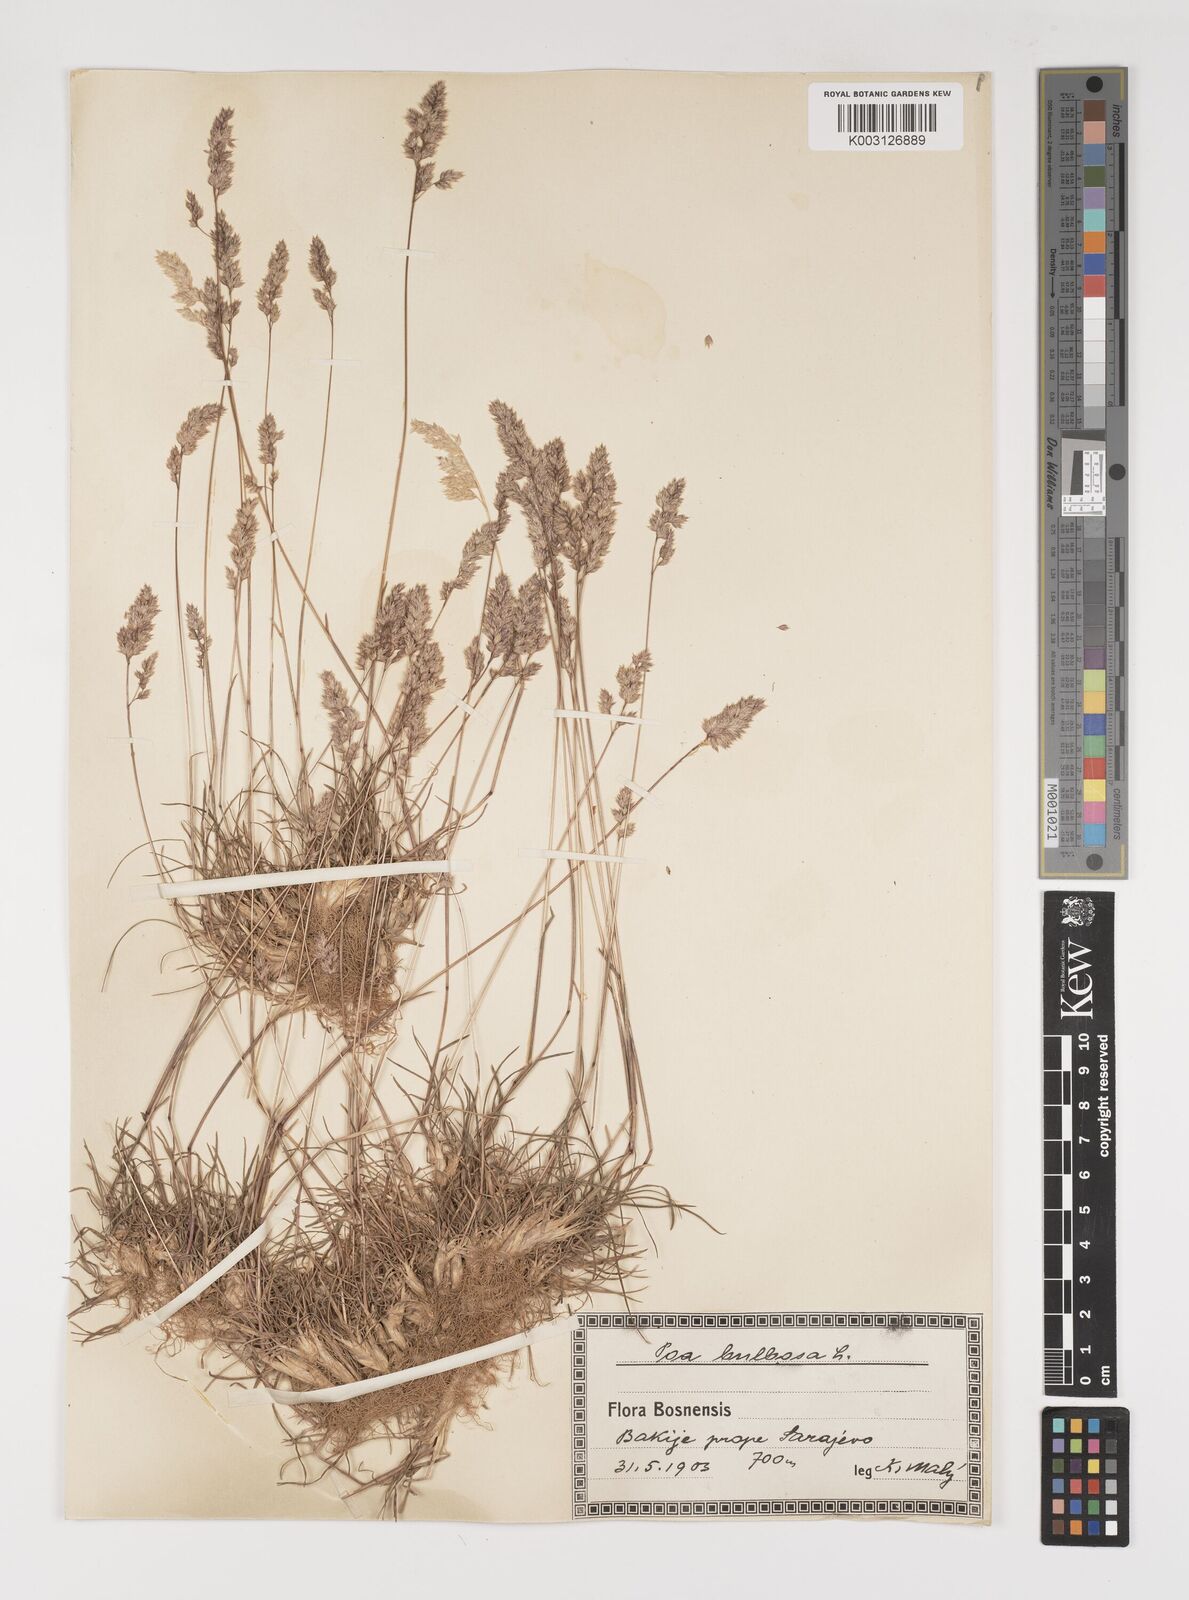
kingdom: Plantae
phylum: Tracheophyta
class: Liliopsida
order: Poales
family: Poaceae
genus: Poa
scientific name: Poa bulbosa
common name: Bulbous bluegrass
